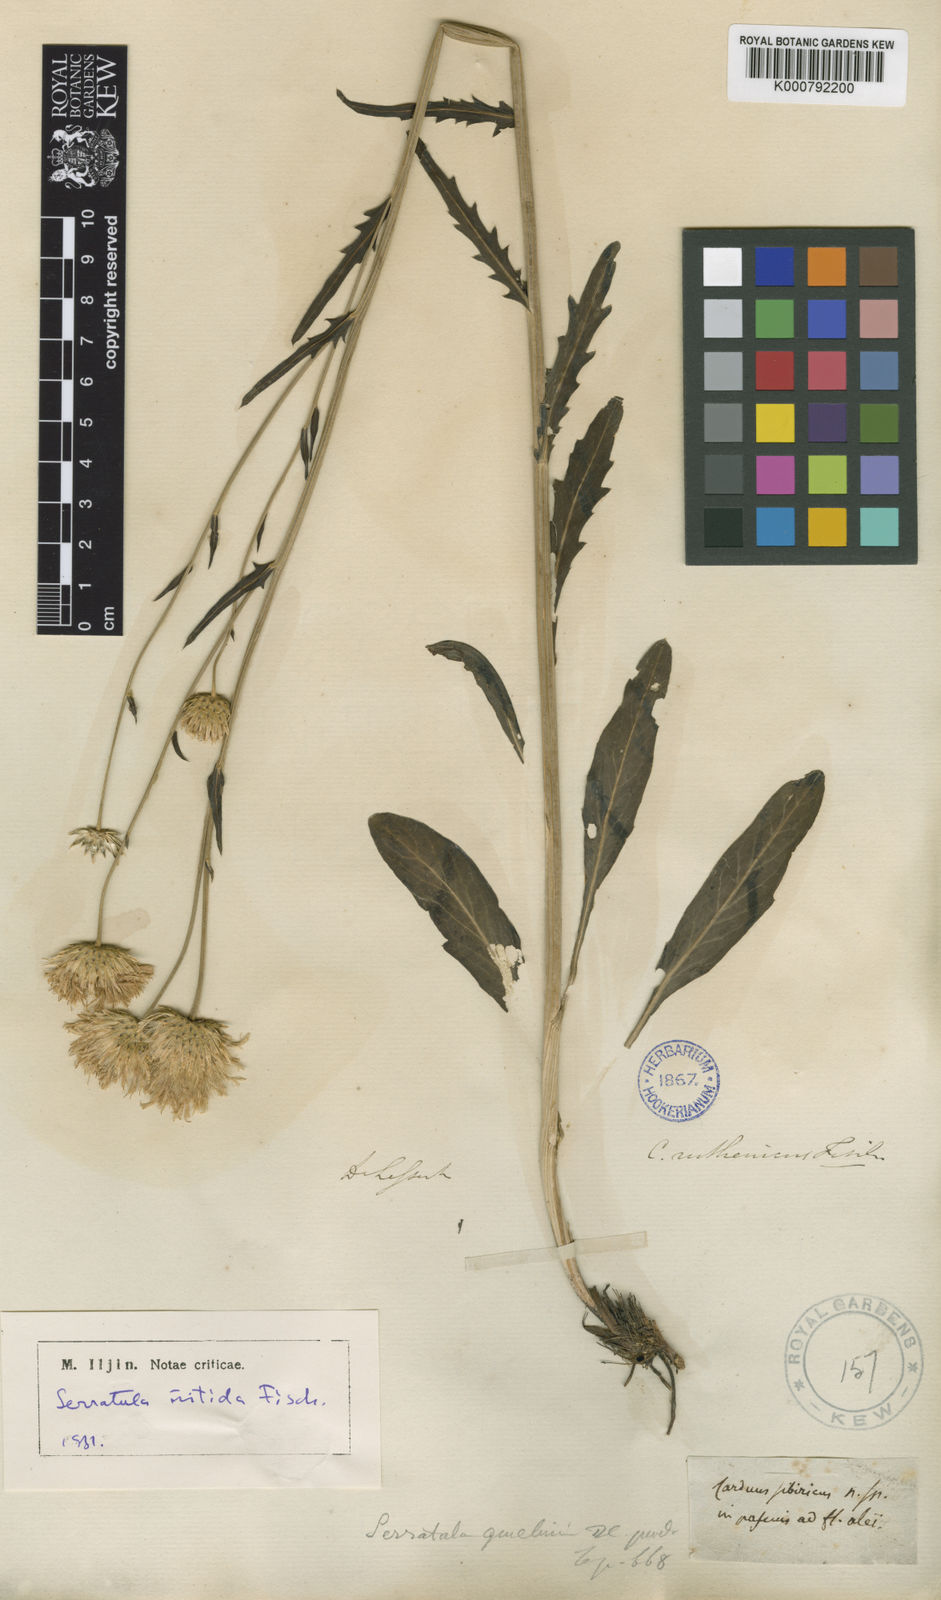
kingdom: Plantae
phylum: Tracheophyta
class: Magnoliopsida
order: Asterales
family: Asteraceae
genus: Serratula
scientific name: Serratula
